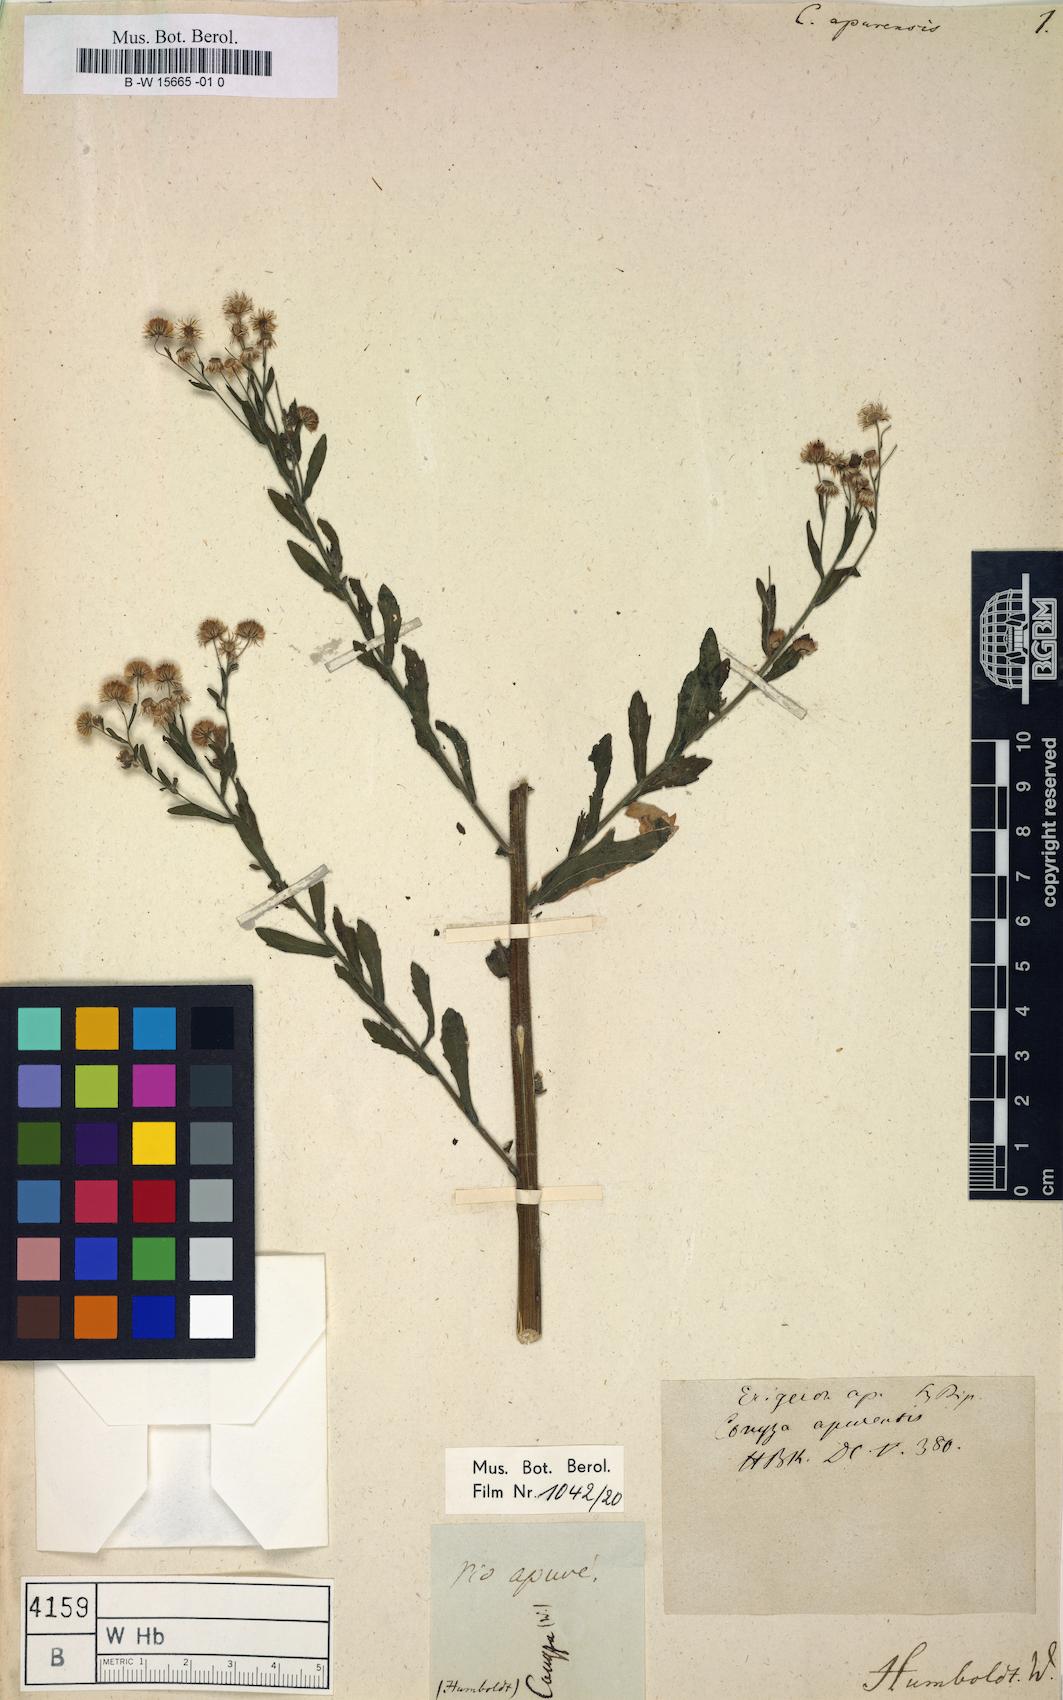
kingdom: Plantae
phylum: Tracheophyta
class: Magnoliopsida
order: Asterales
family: Asteraceae
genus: Erigeron
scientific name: Erigeron laevigatus
